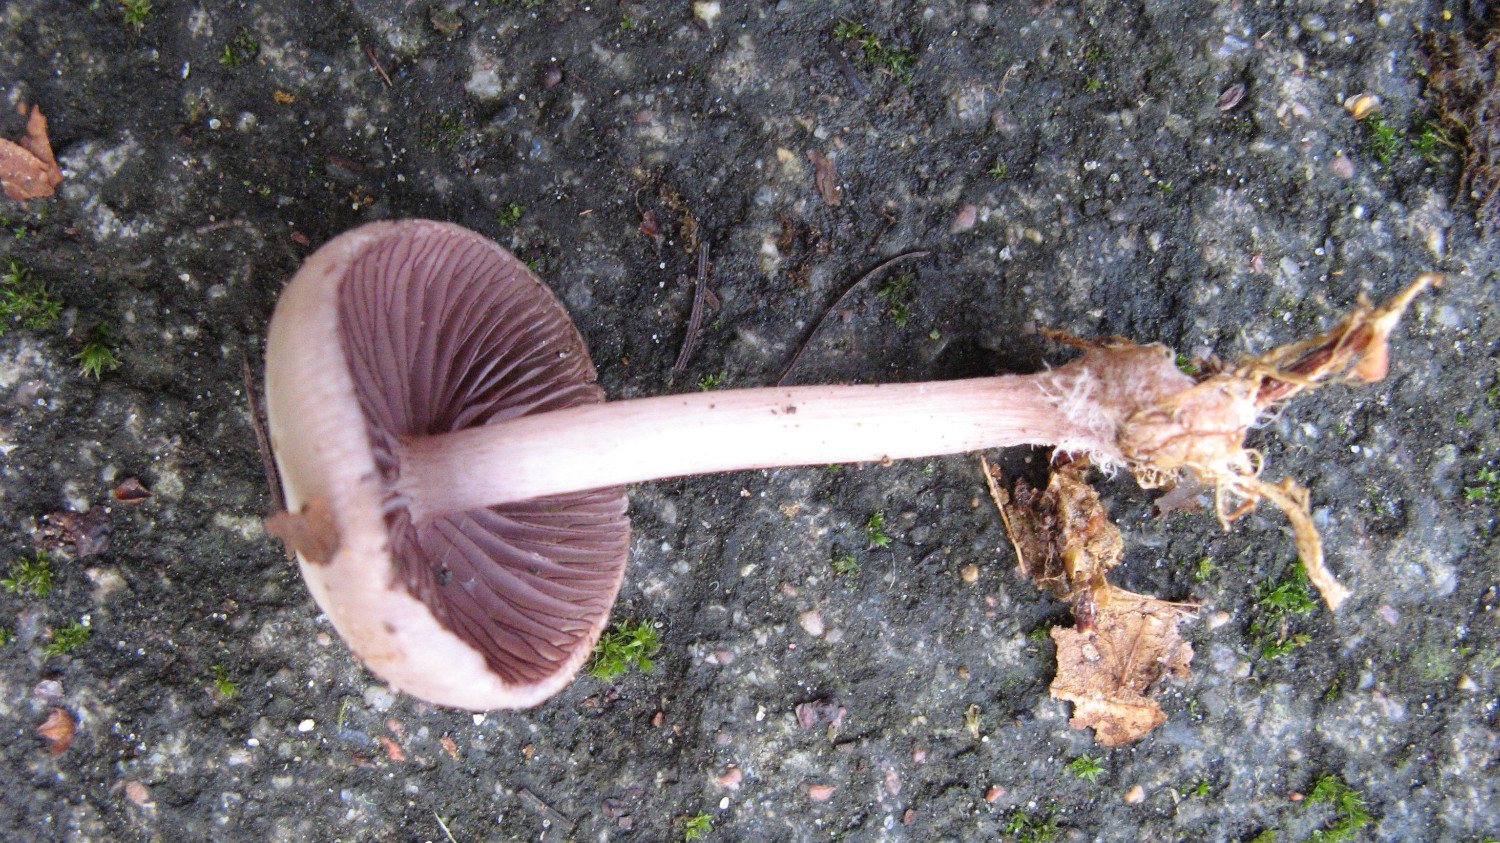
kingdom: Fungi
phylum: Basidiomycota
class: Agaricomycetes
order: Agaricales
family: Mycenaceae
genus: Mycena
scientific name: Mycena pelianthina
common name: mørkbladet huesvamp
